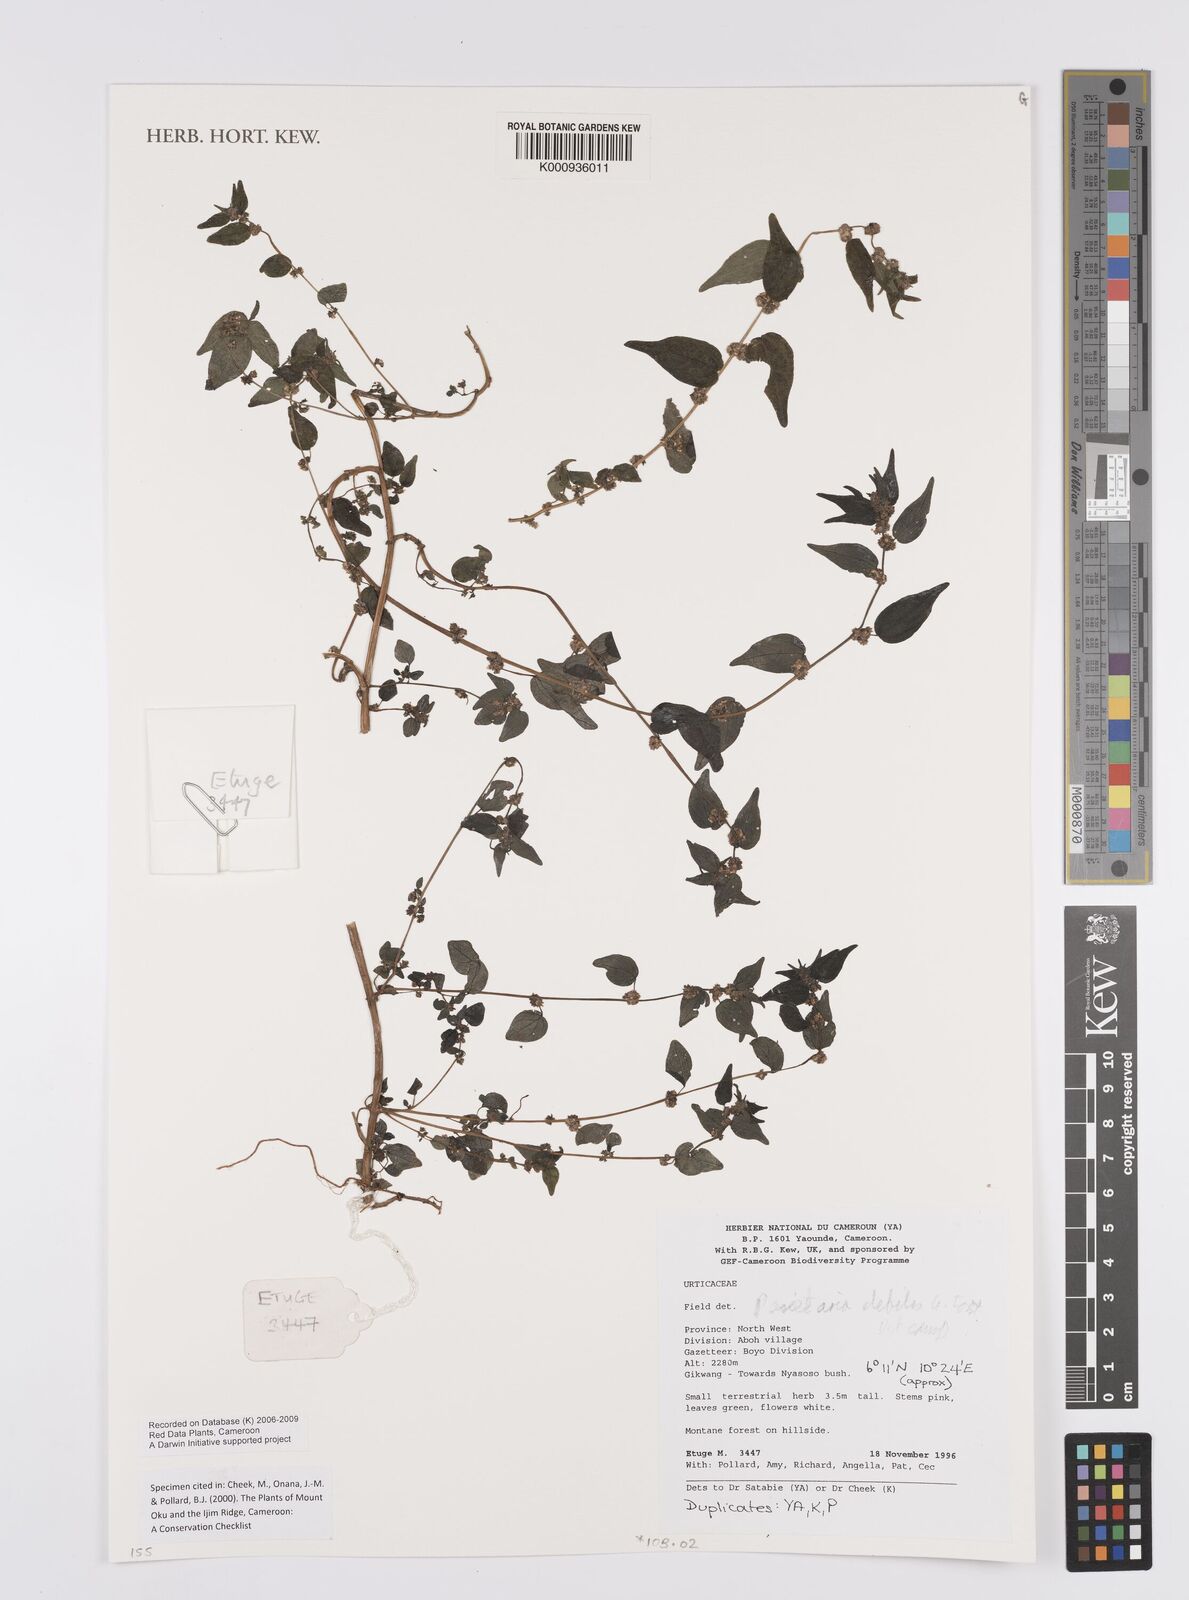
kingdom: Plantae
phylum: Tracheophyta
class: Magnoliopsida
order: Rosales
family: Urticaceae
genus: Parietaria
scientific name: Parietaria debilis
